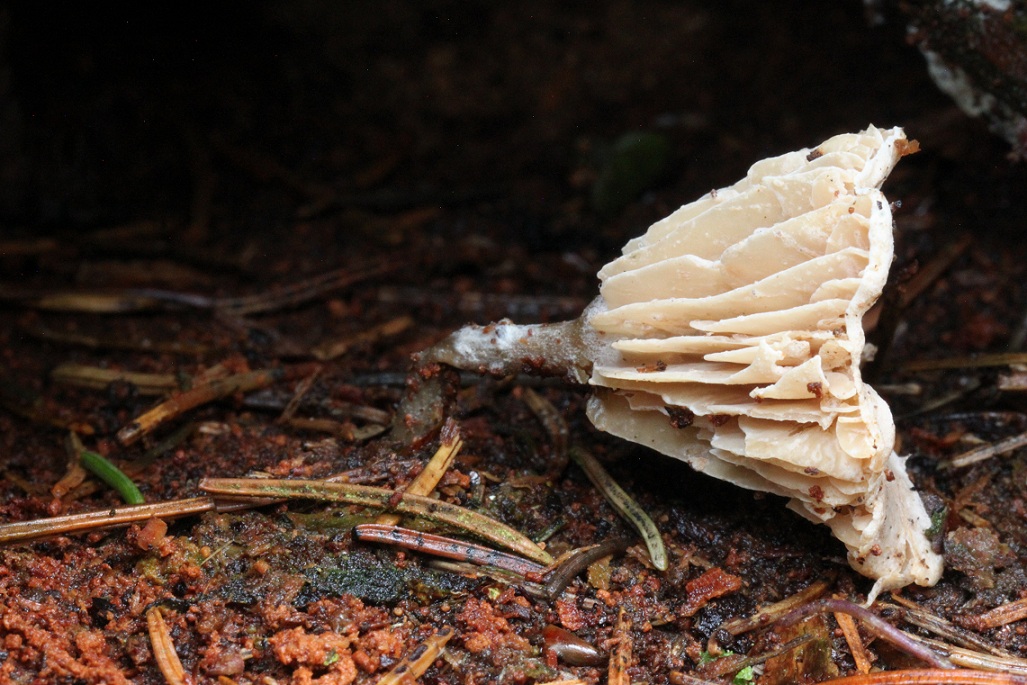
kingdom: Fungi
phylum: Basidiomycota
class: Agaricomycetes
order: Agaricales
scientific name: Agaricales
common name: champignonordenen
